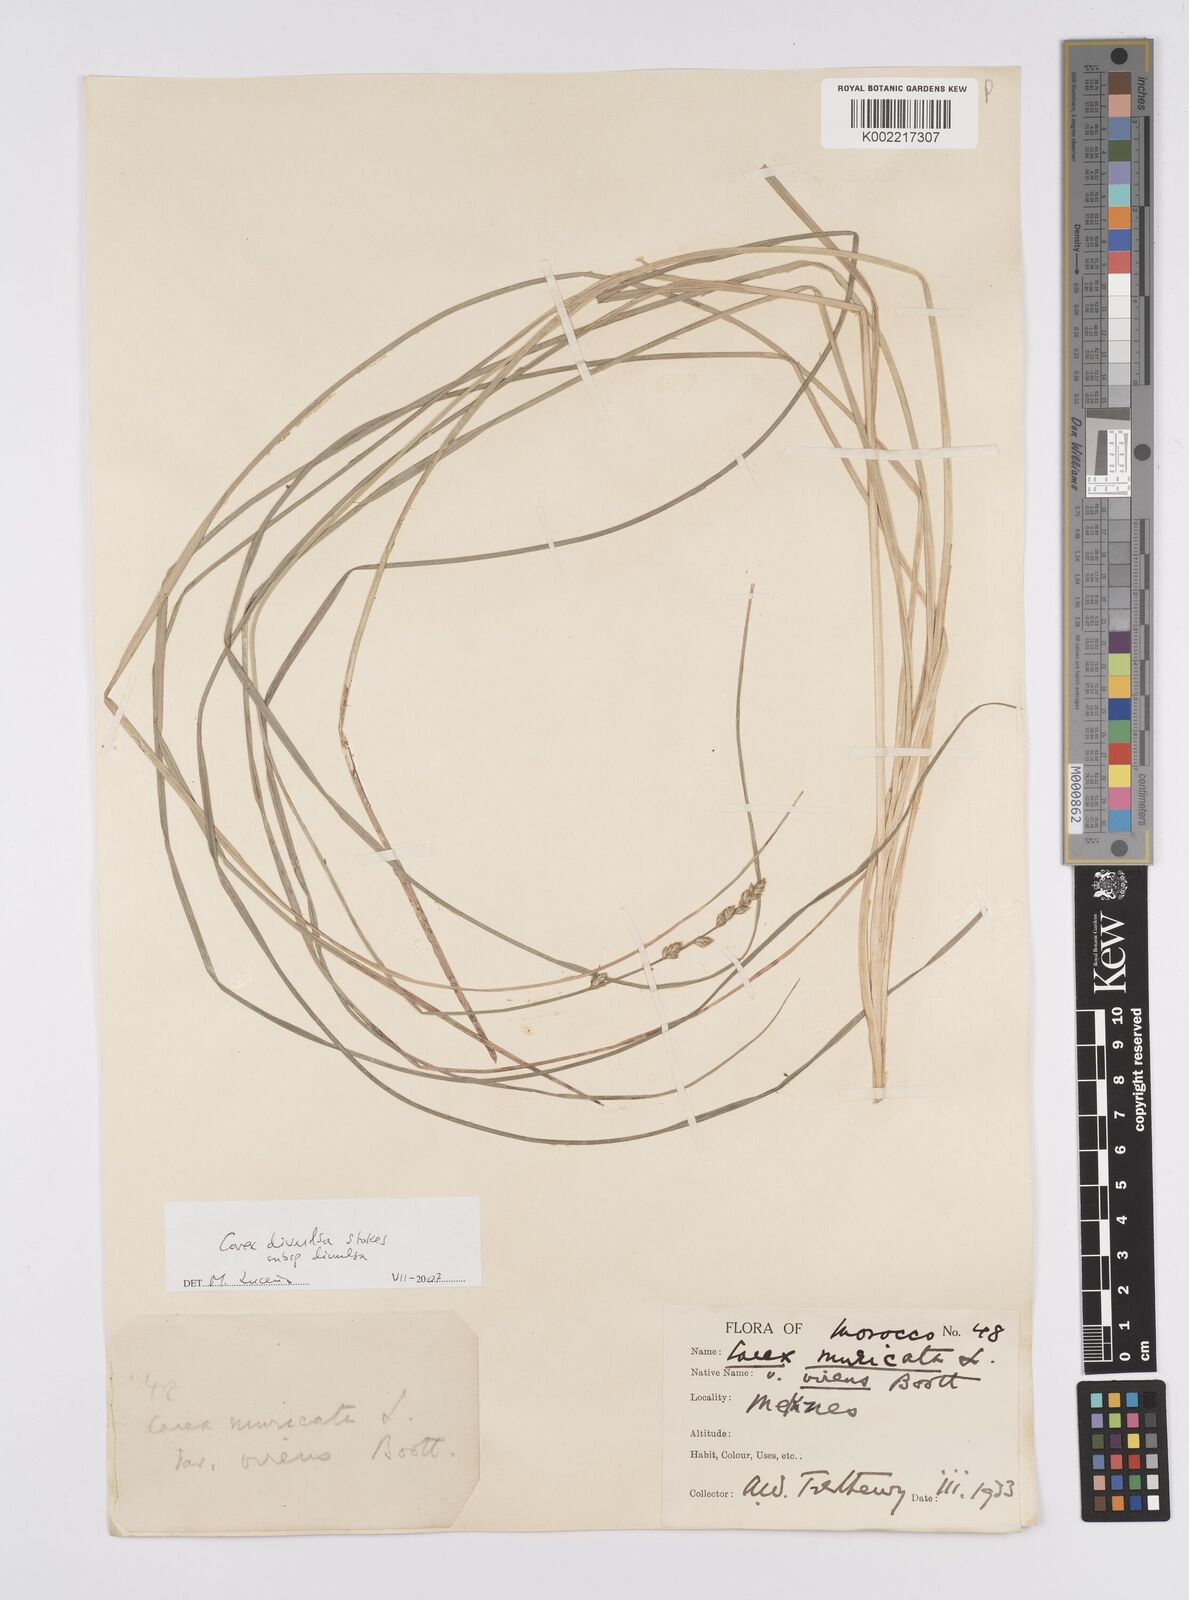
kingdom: Plantae
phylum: Tracheophyta
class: Liliopsida
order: Poales
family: Cyperaceae
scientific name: Cyperaceae
